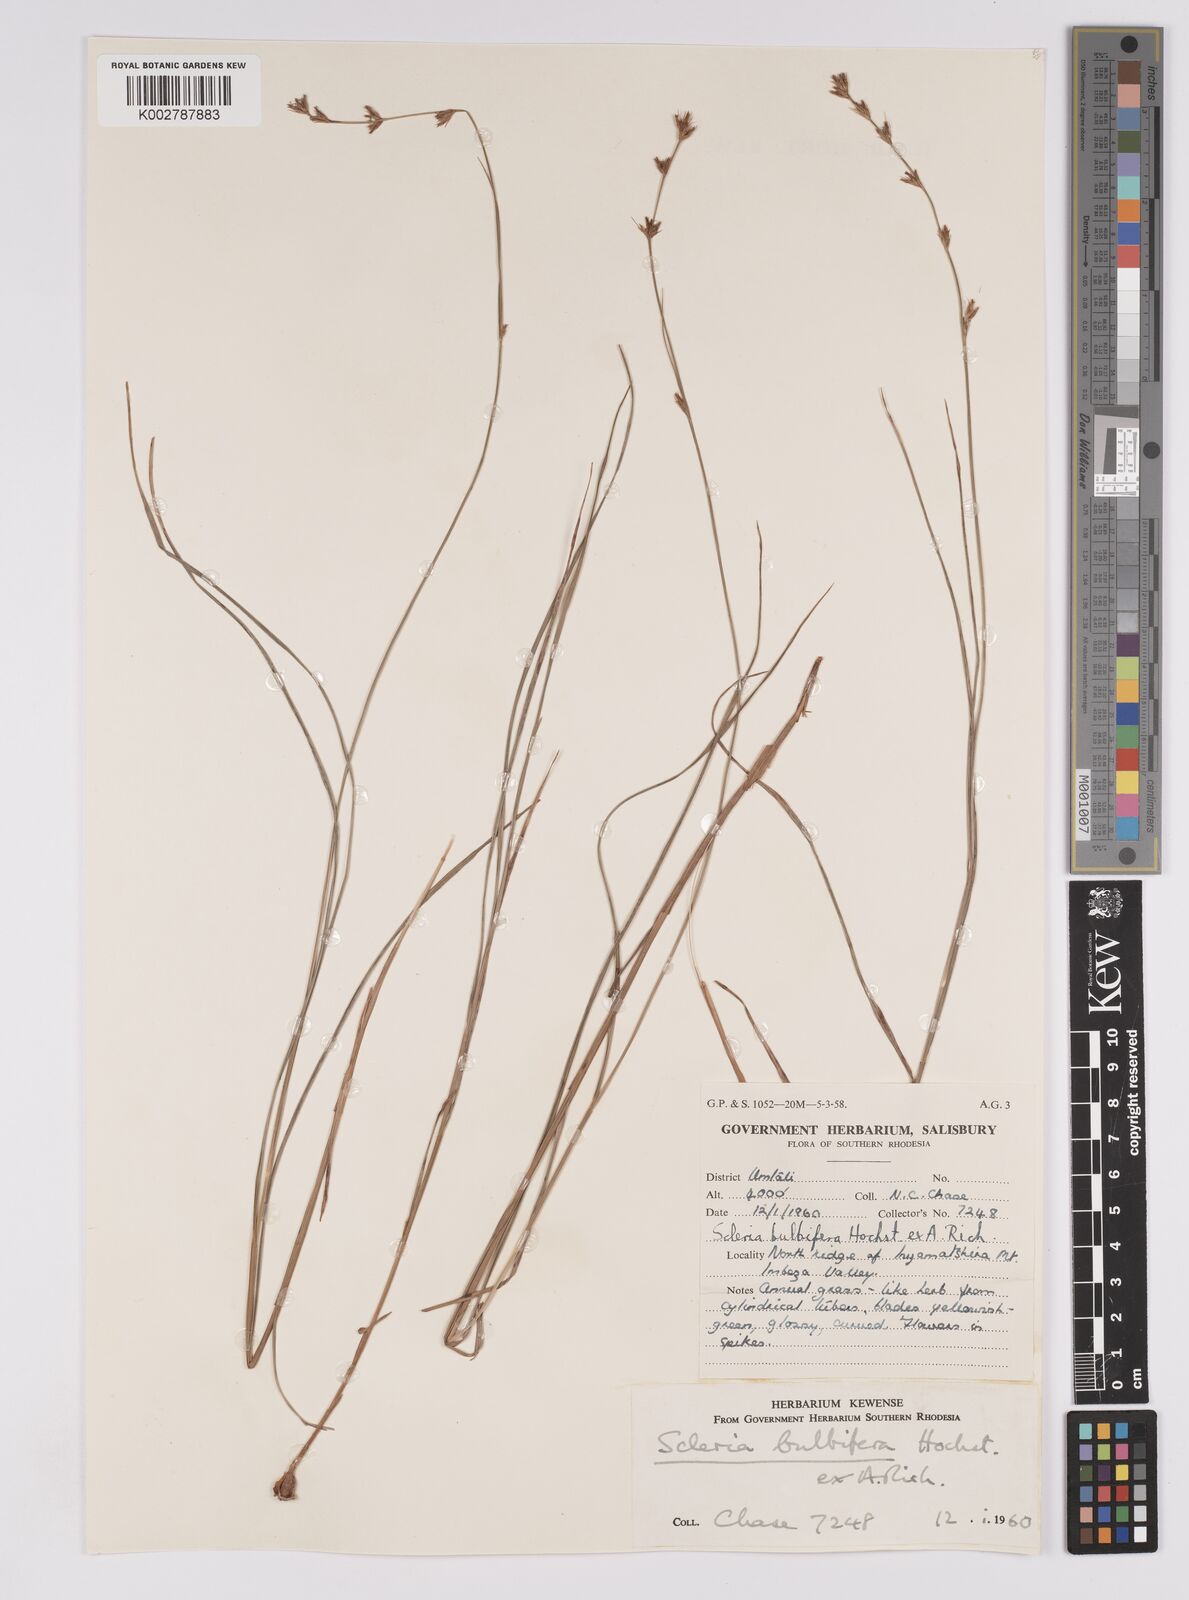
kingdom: Plantae
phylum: Tracheophyta
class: Liliopsida
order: Poales
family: Cyperaceae
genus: Scleria
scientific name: Scleria bulbifera
